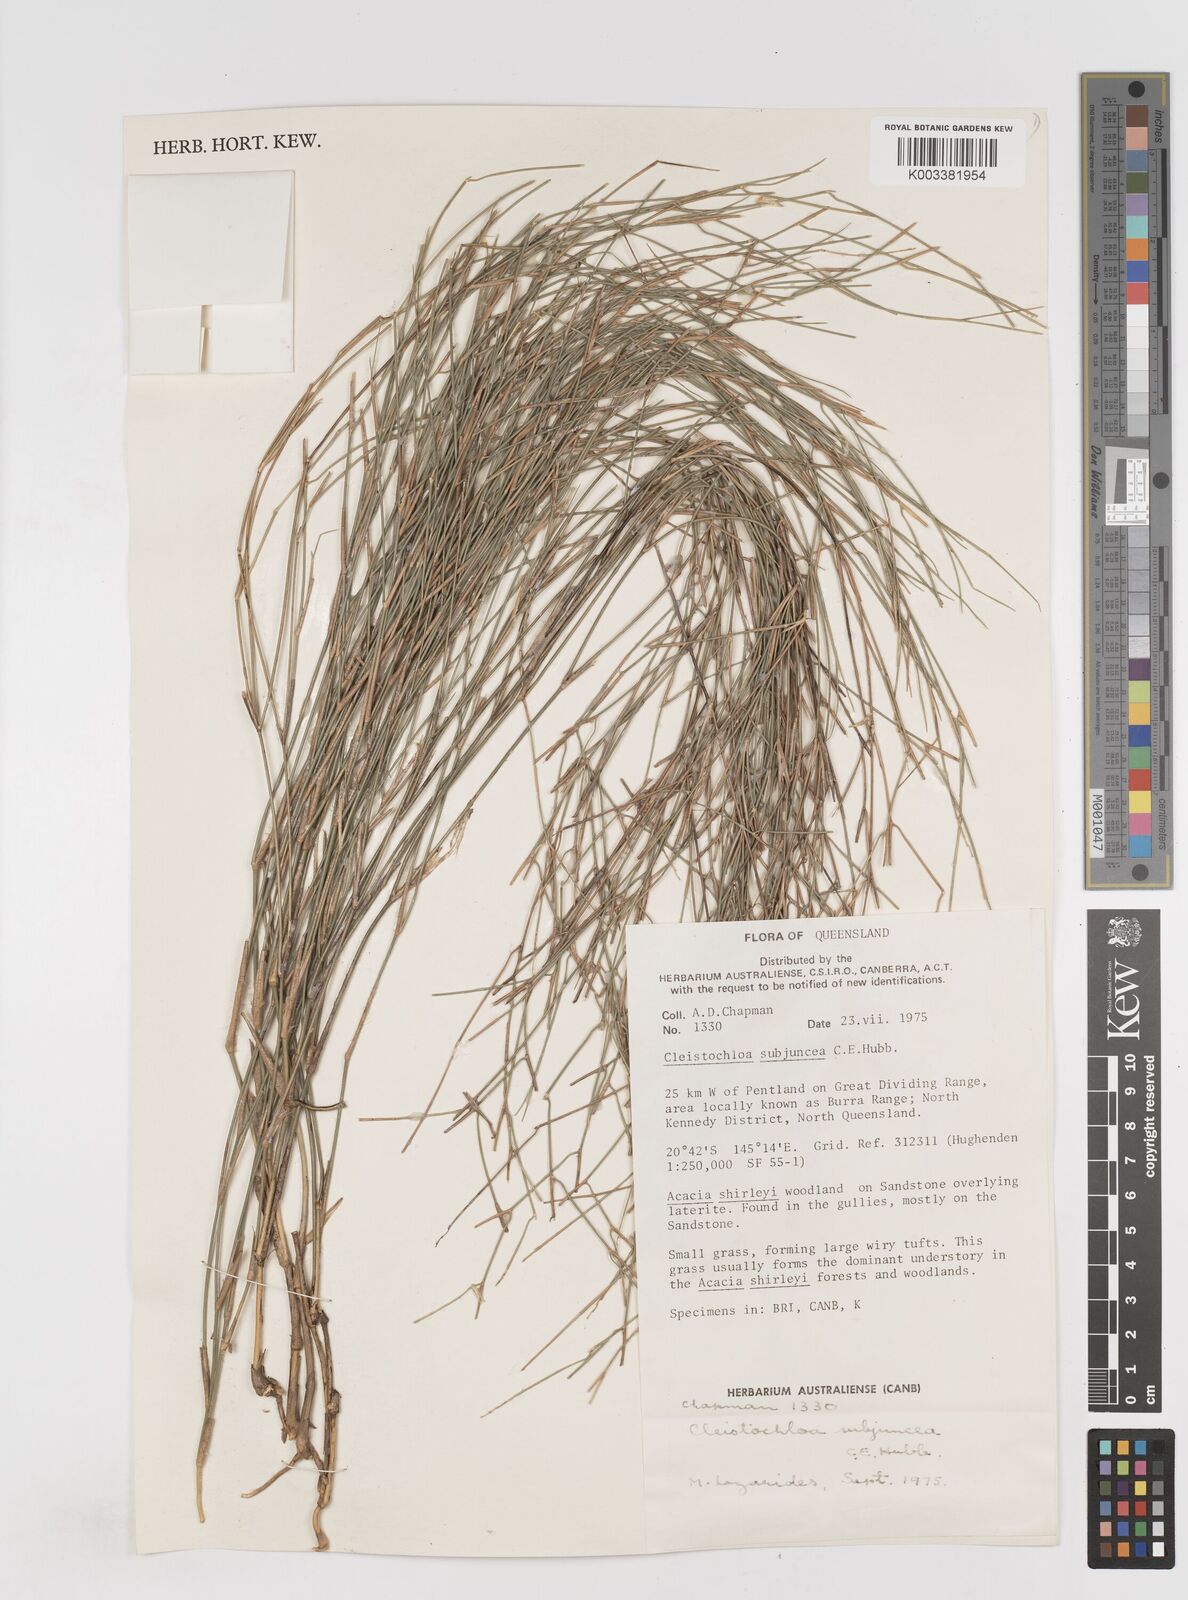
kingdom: Plantae
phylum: Tracheophyta
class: Liliopsida
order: Poales
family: Poaceae
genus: Cleistochloa
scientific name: Cleistochloa subjuncea
